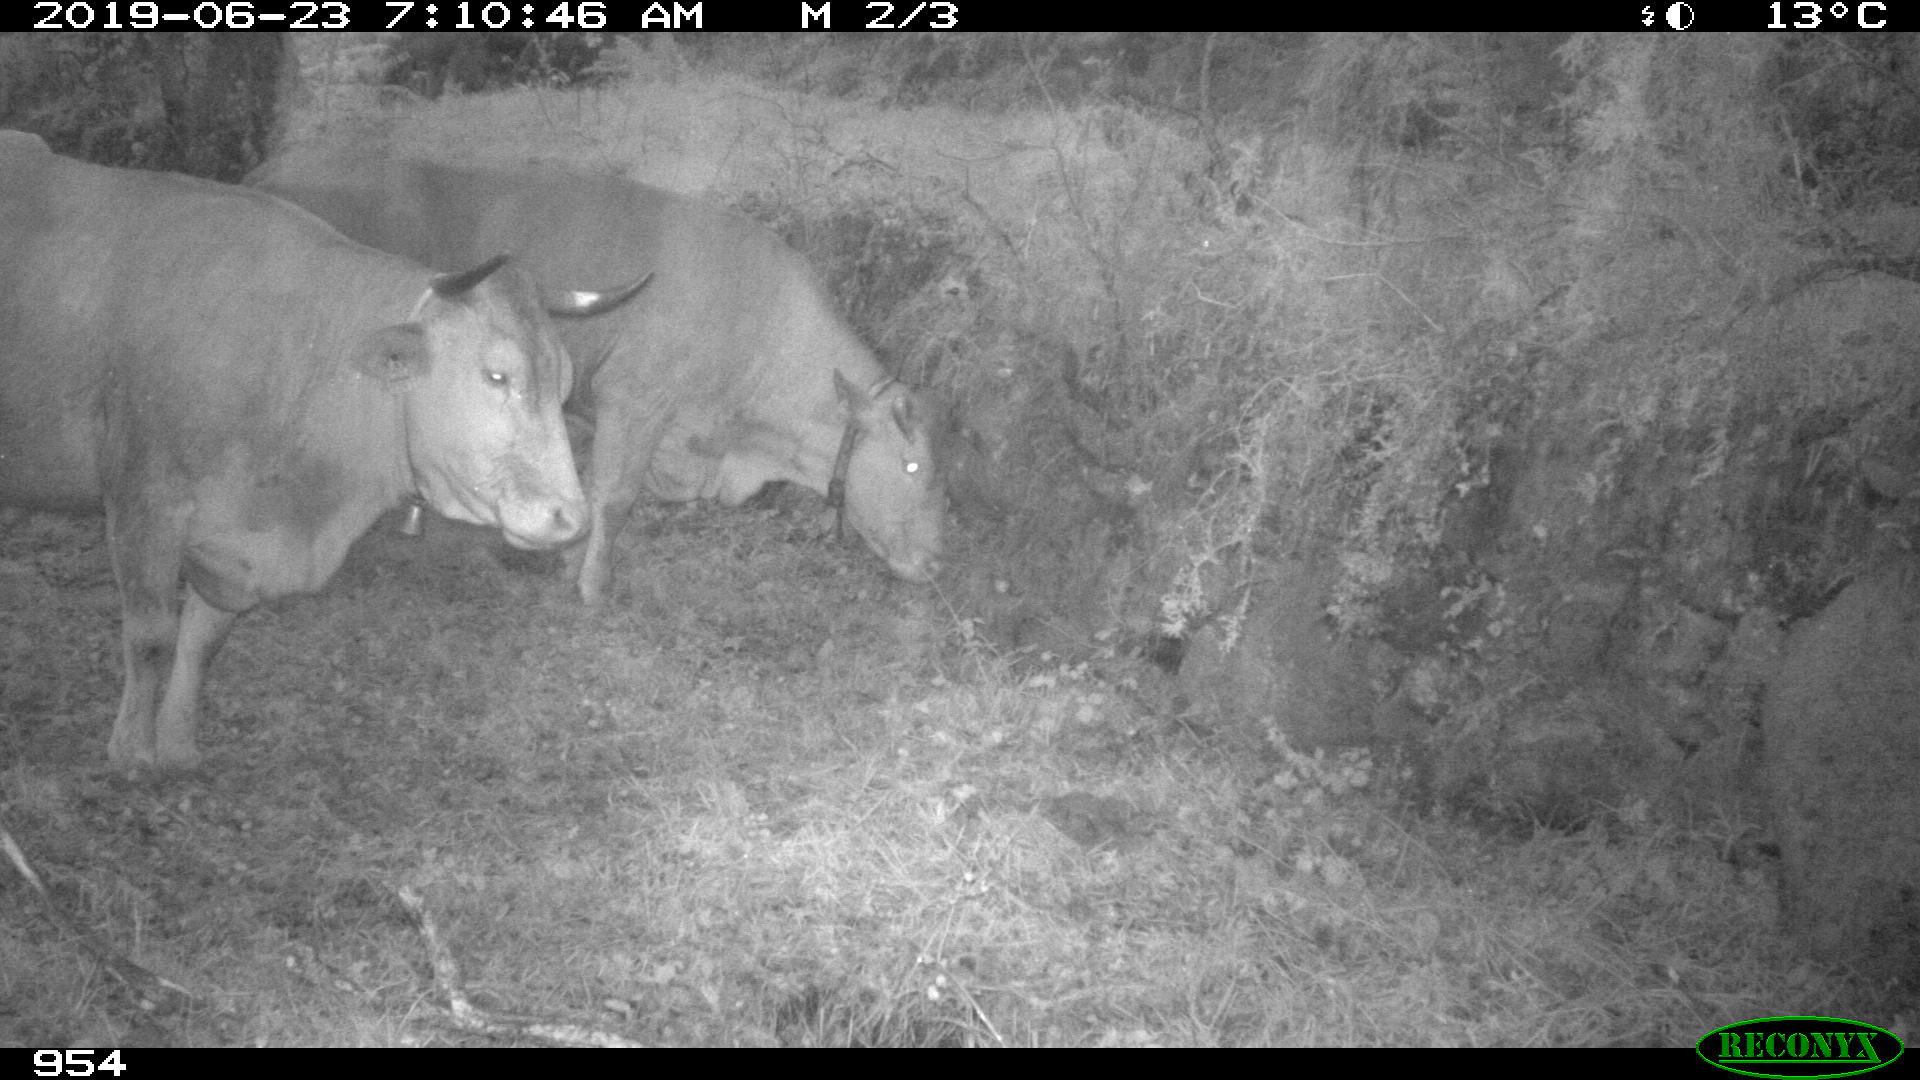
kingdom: Animalia
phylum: Chordata
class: Mammalia
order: Artiodactyla
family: Bovidae
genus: Bos
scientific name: Bos taurus
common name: Domesticated cattle
